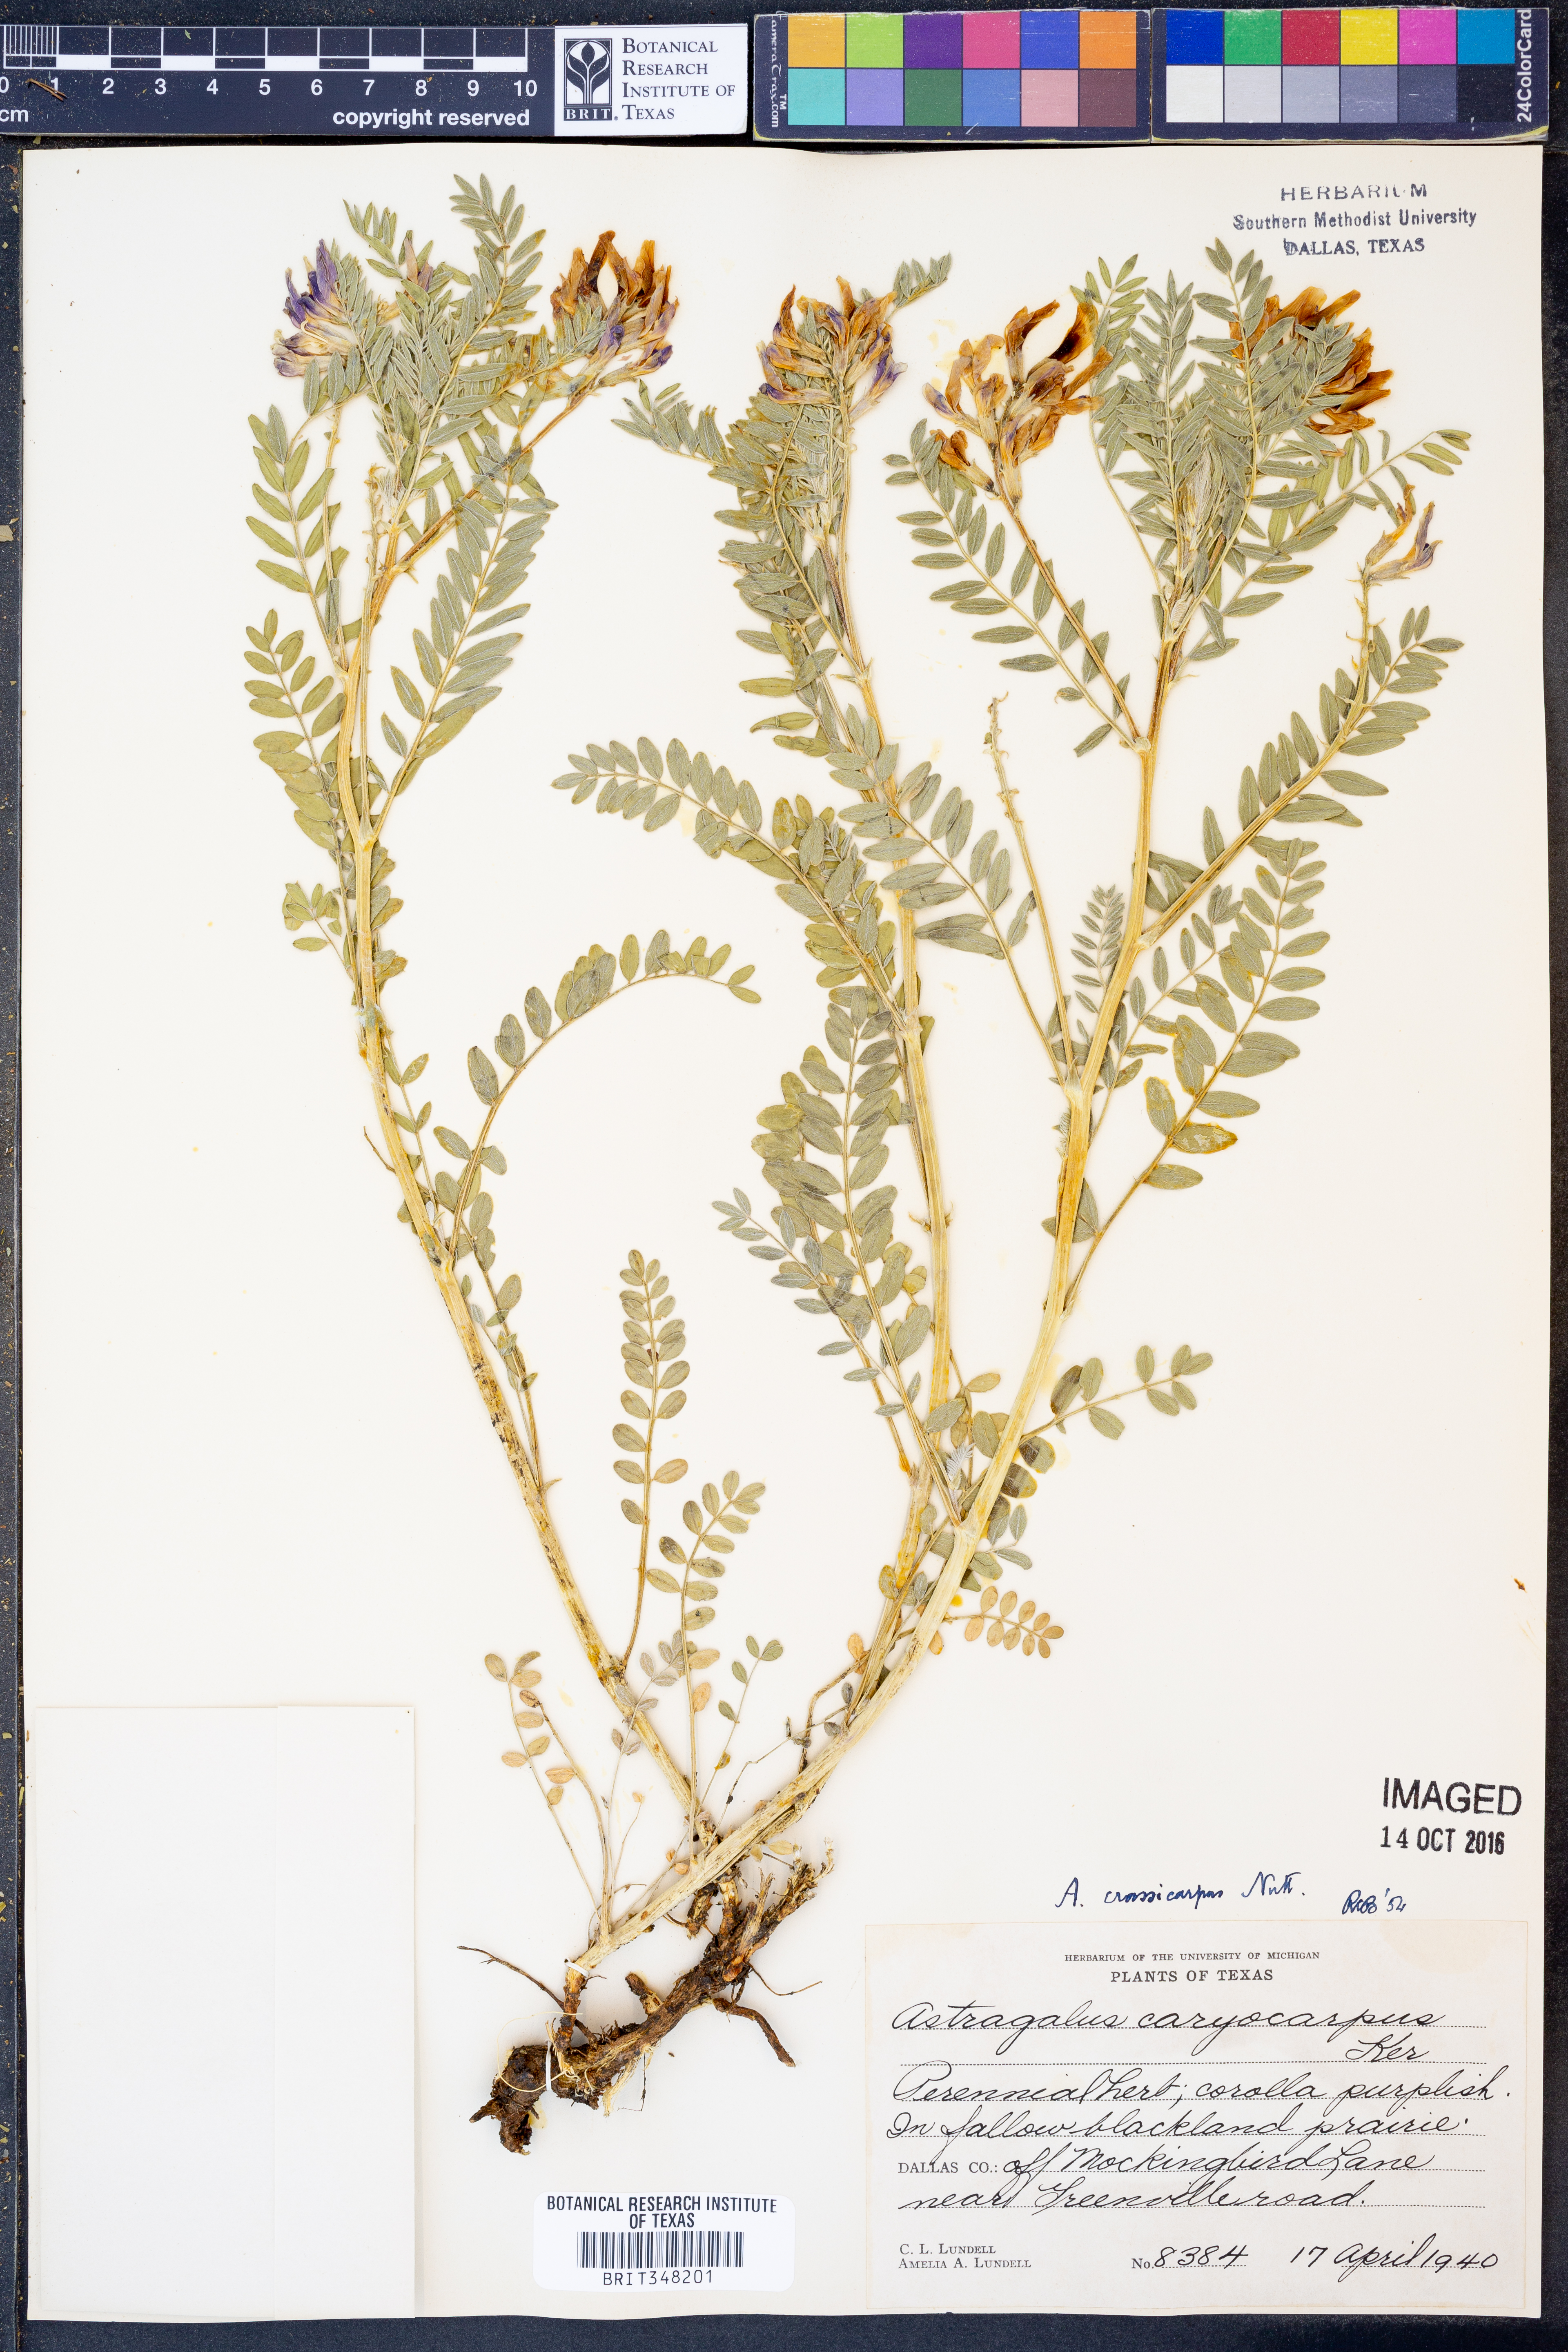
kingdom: Plantae
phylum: Tracheophyta
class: Magnoliopsida
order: Fabales
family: Fabaceae
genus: Astragalus
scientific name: Astragalus crassicarpus
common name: Ground-plum milk-vetch
